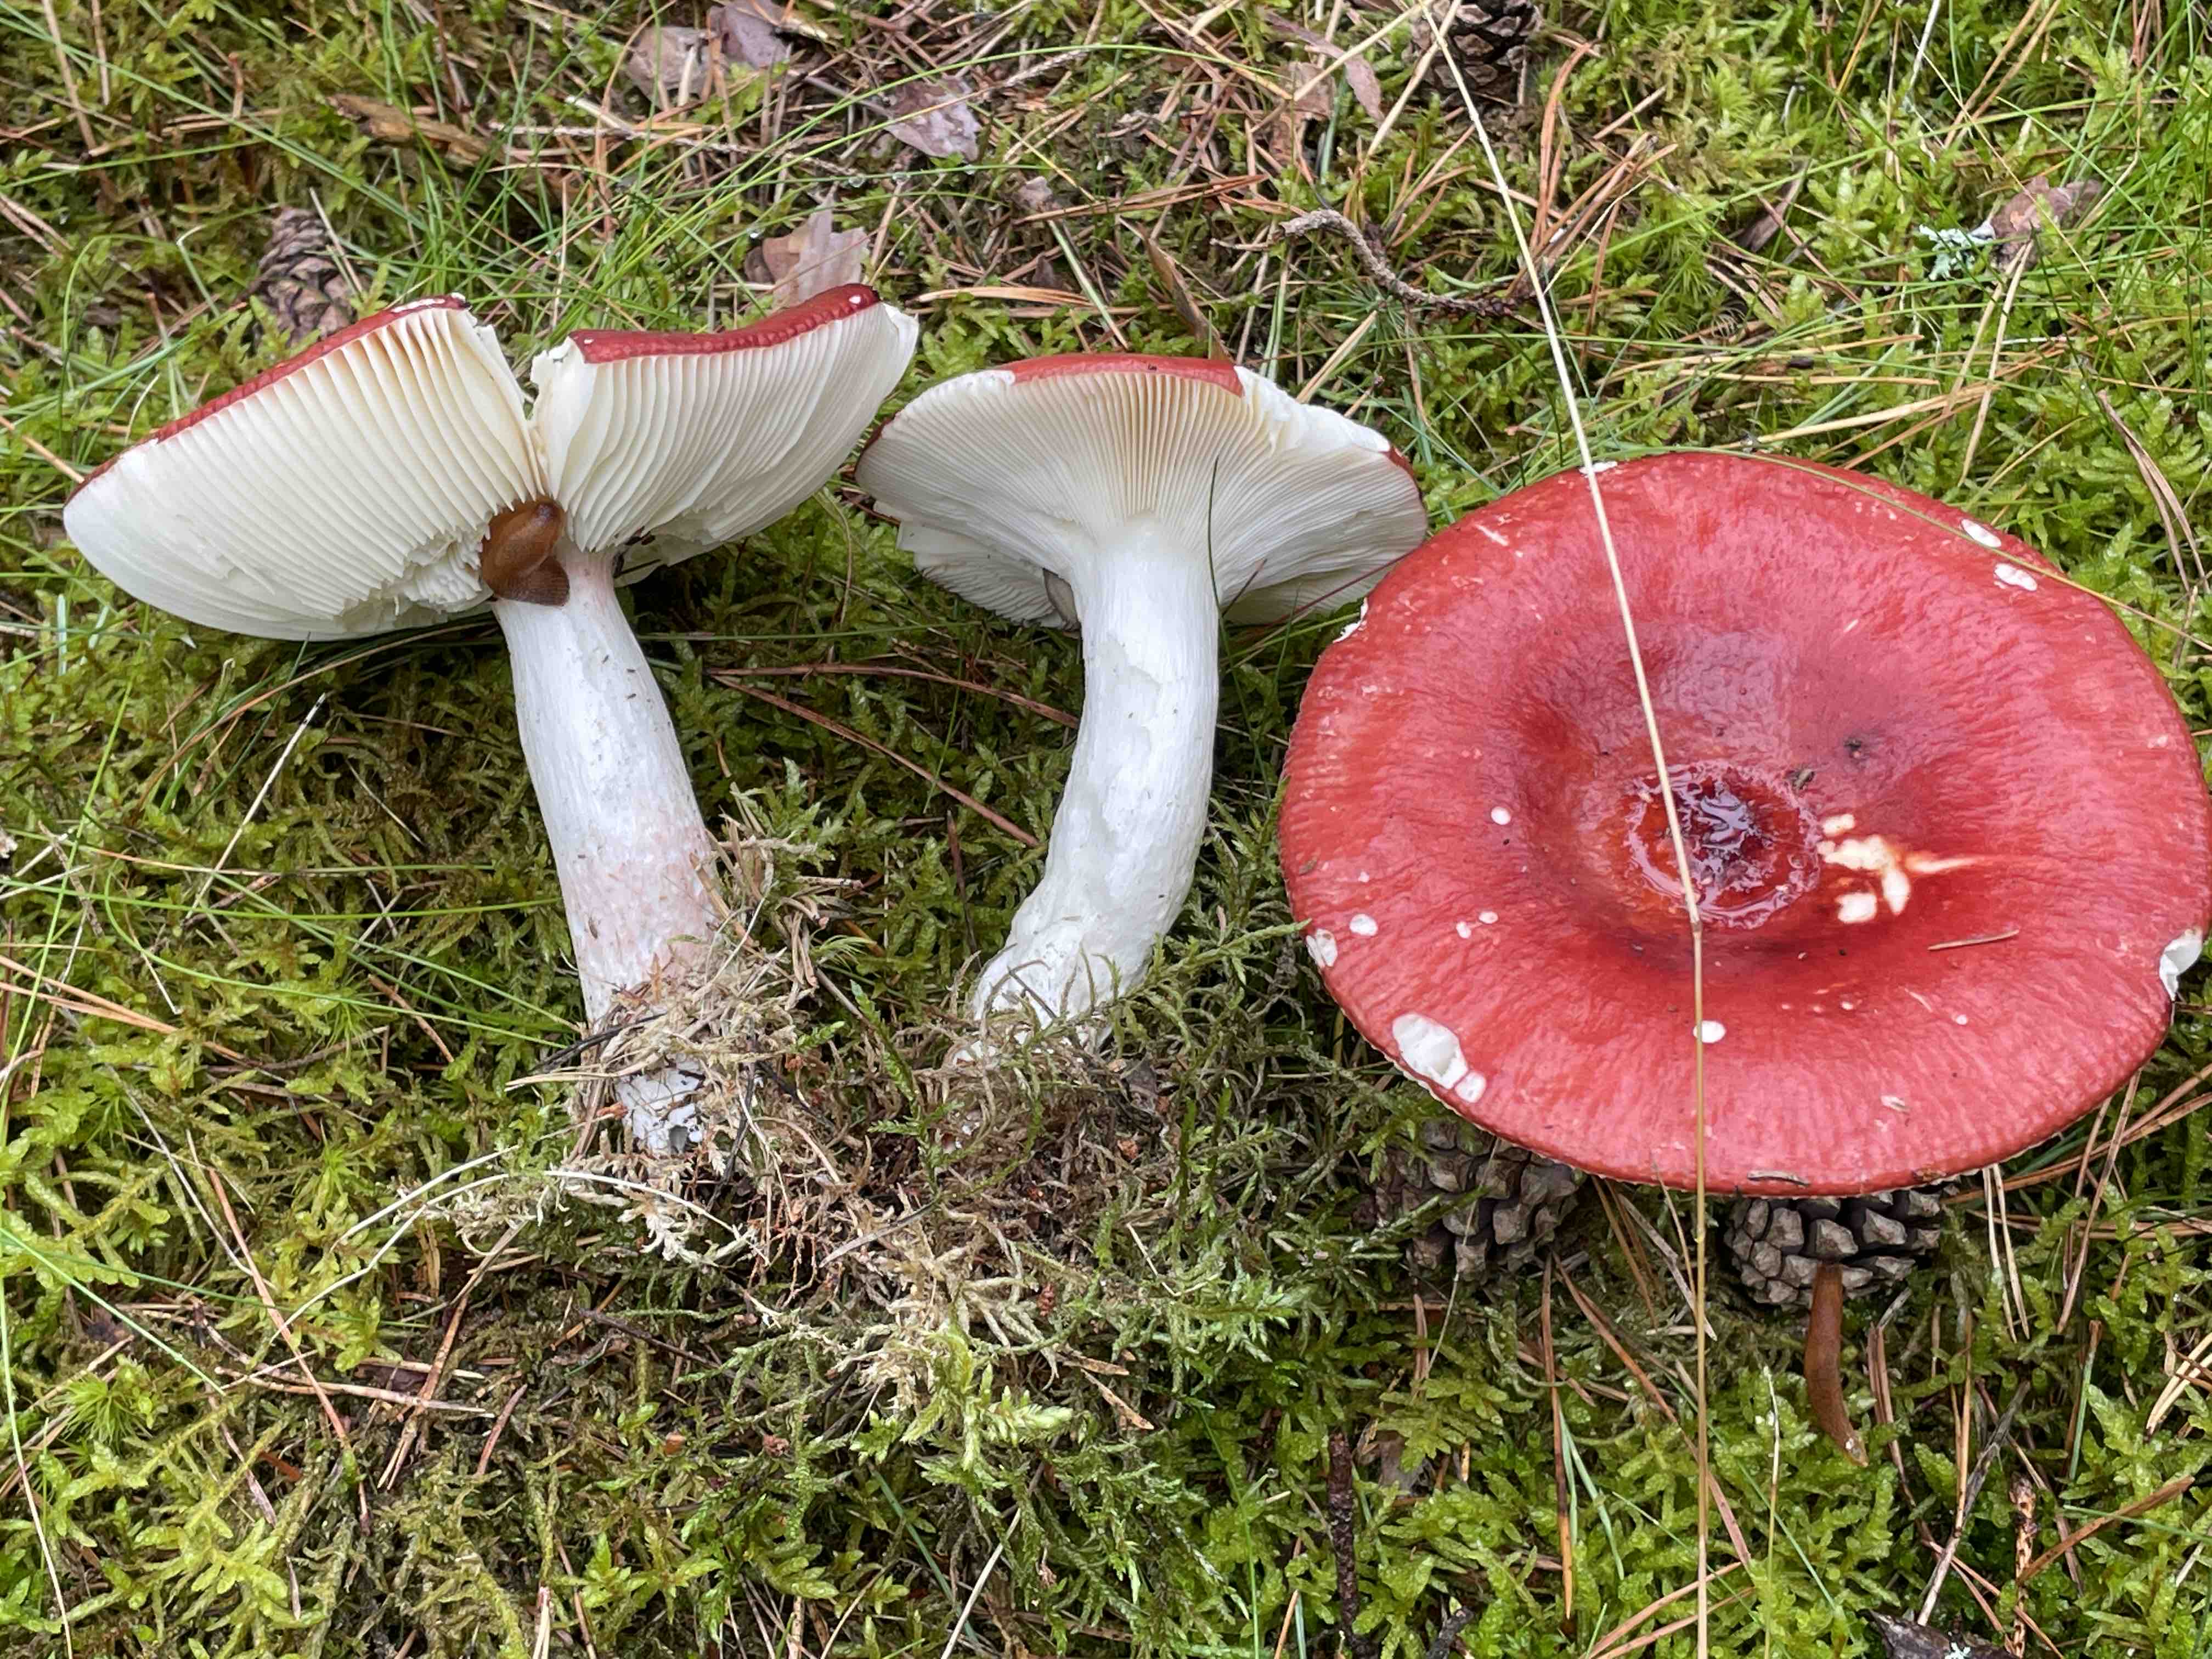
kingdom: Fungi
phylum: Basidiomycota
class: Agaricomycetes
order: Russulales
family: Russulaceae
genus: Russula
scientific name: Russula paludosa
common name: prægtig skørhat
